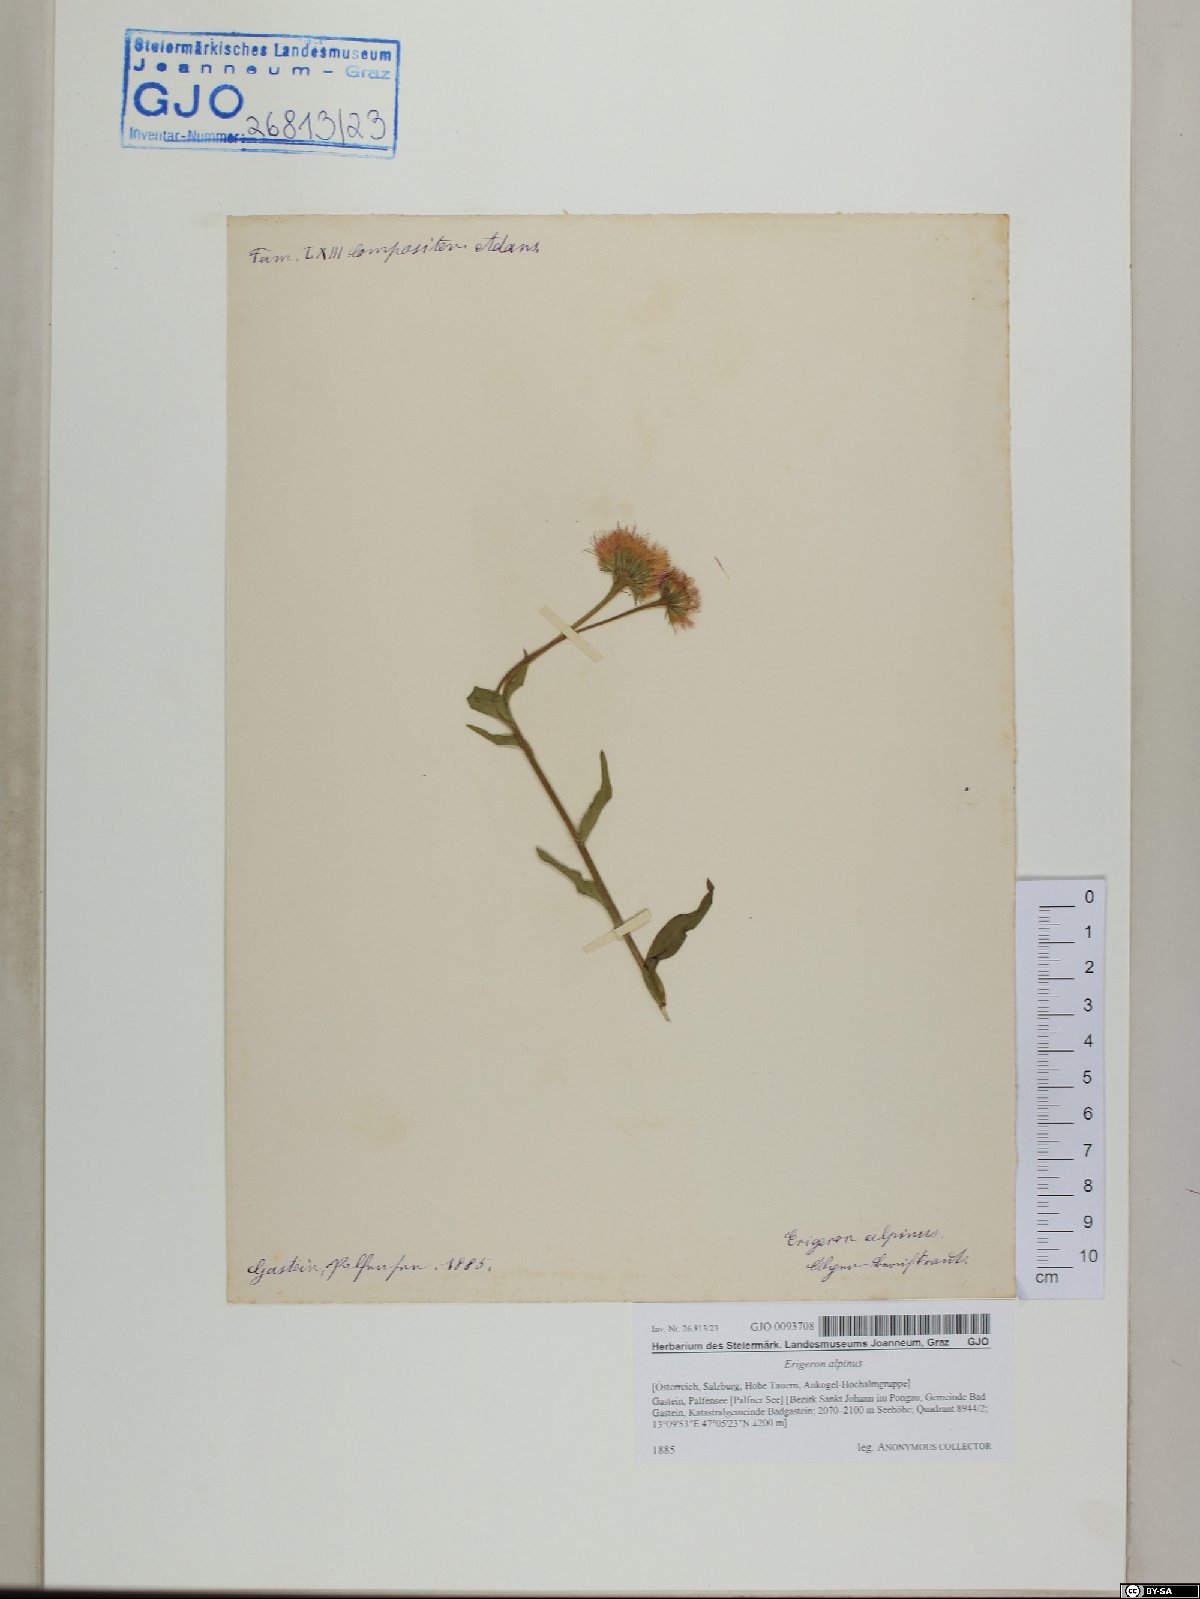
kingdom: Plantae
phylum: Tracheophyta
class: Magnoliopsida
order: Asterales
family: Asteraceae
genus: Erigeron
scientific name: Erigeron alpinus
